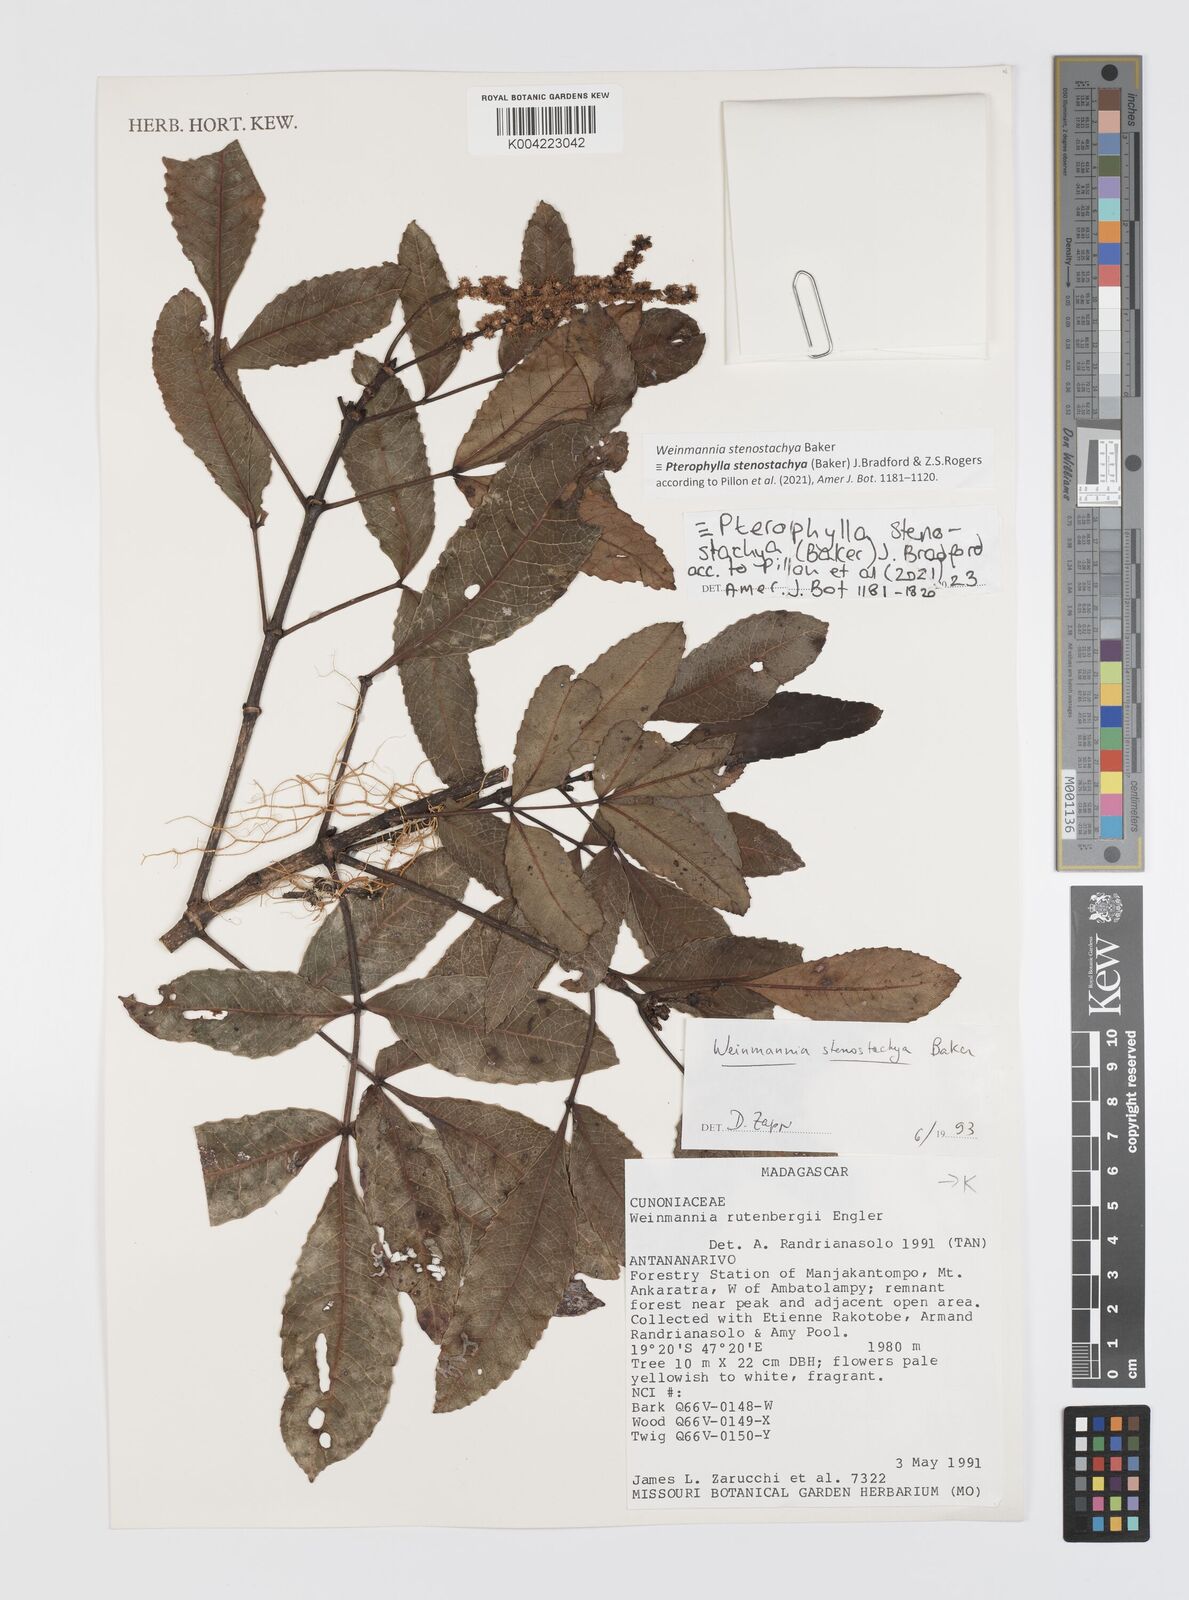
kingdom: Plantae
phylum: Tracheophyta
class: Magnoliopsida
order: Oxalidales
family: Cunoniaceae
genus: Pterophylla
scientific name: Pterophylla stenostachya
